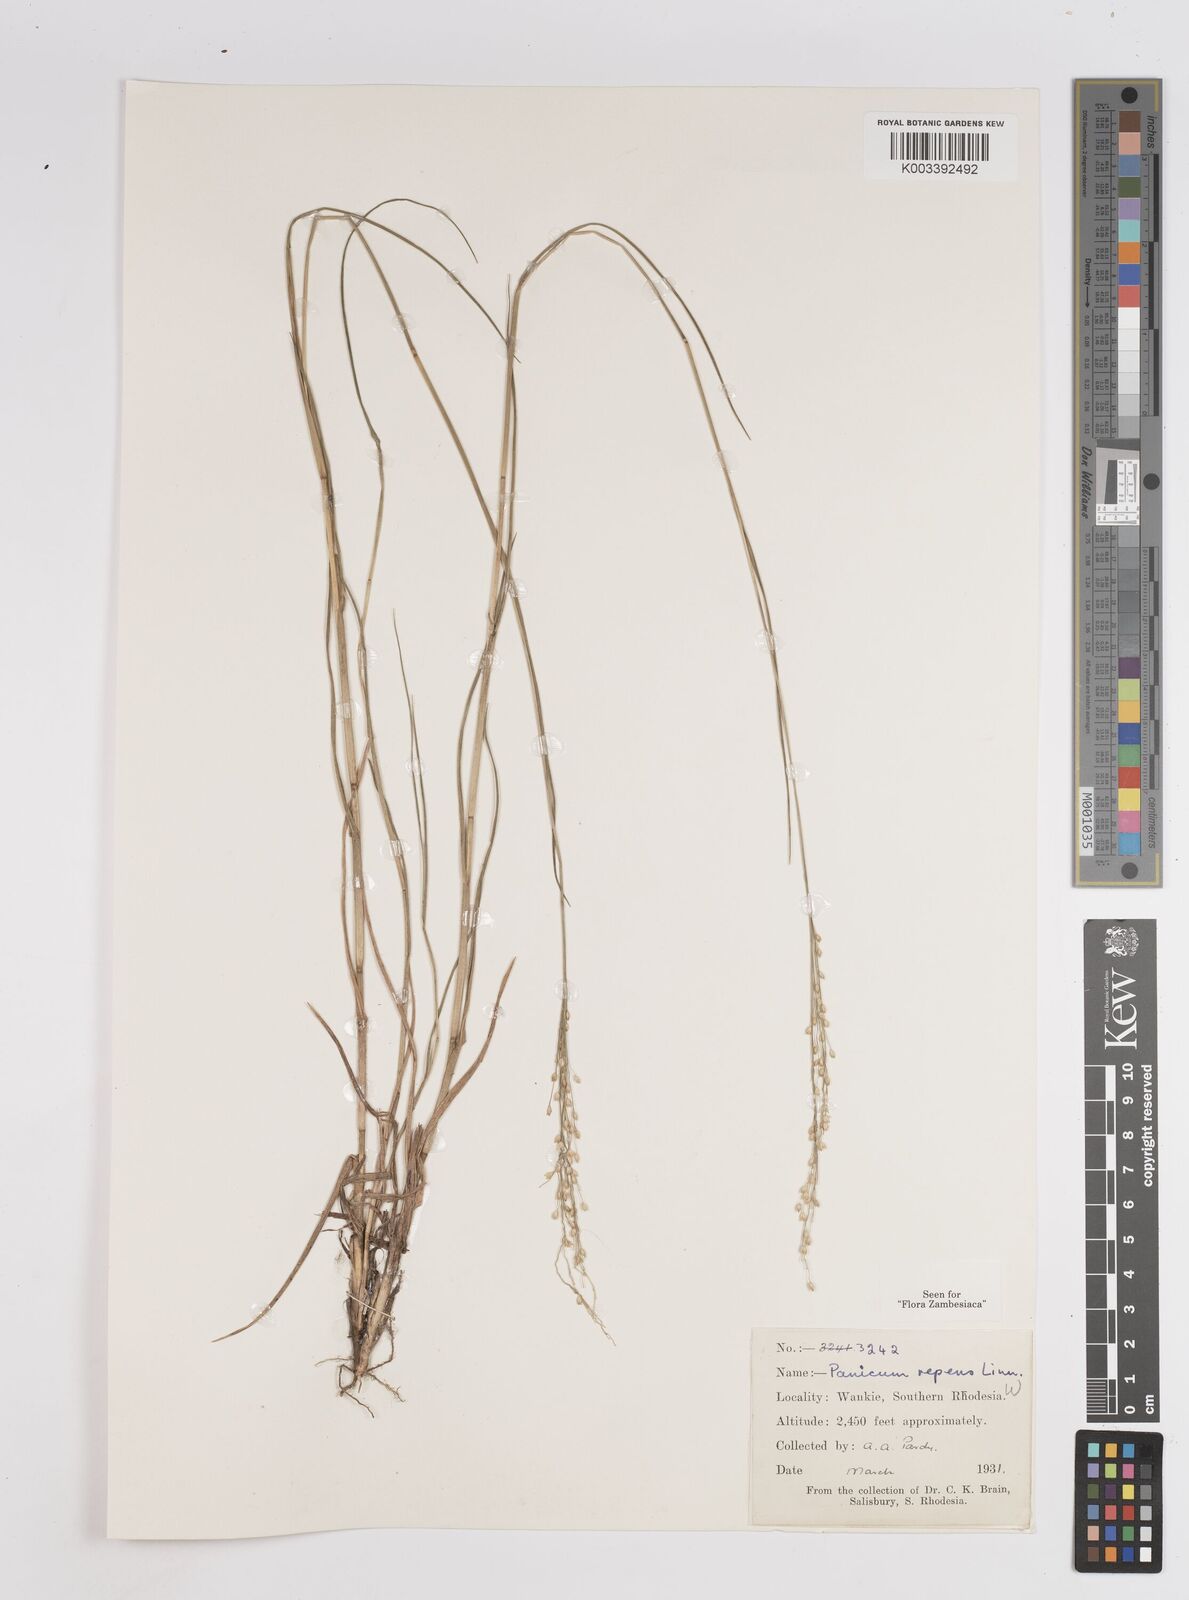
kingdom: Plantae
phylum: Tracheophyta
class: Liliopsida
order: Poales
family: Poaceae
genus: Panicum
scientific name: Panicum repens
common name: Torpedo grass
